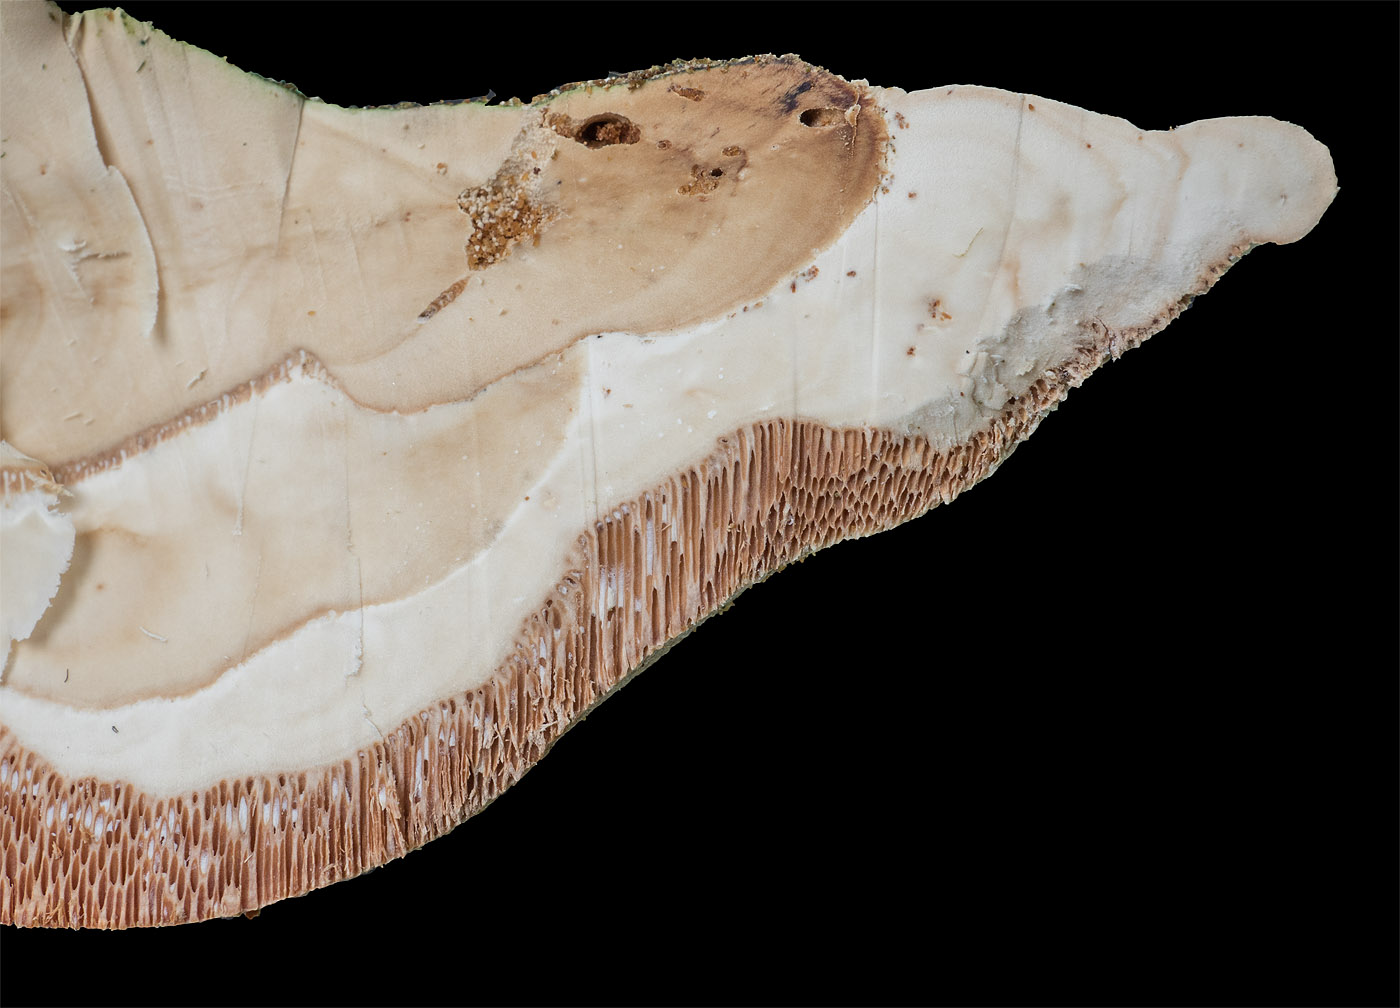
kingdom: Fungi
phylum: Basidiomycota
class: Agaricomycetes
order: Polyporales
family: Meripilaceae
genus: Rigidoporus
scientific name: Rigidoporus ulmarius
